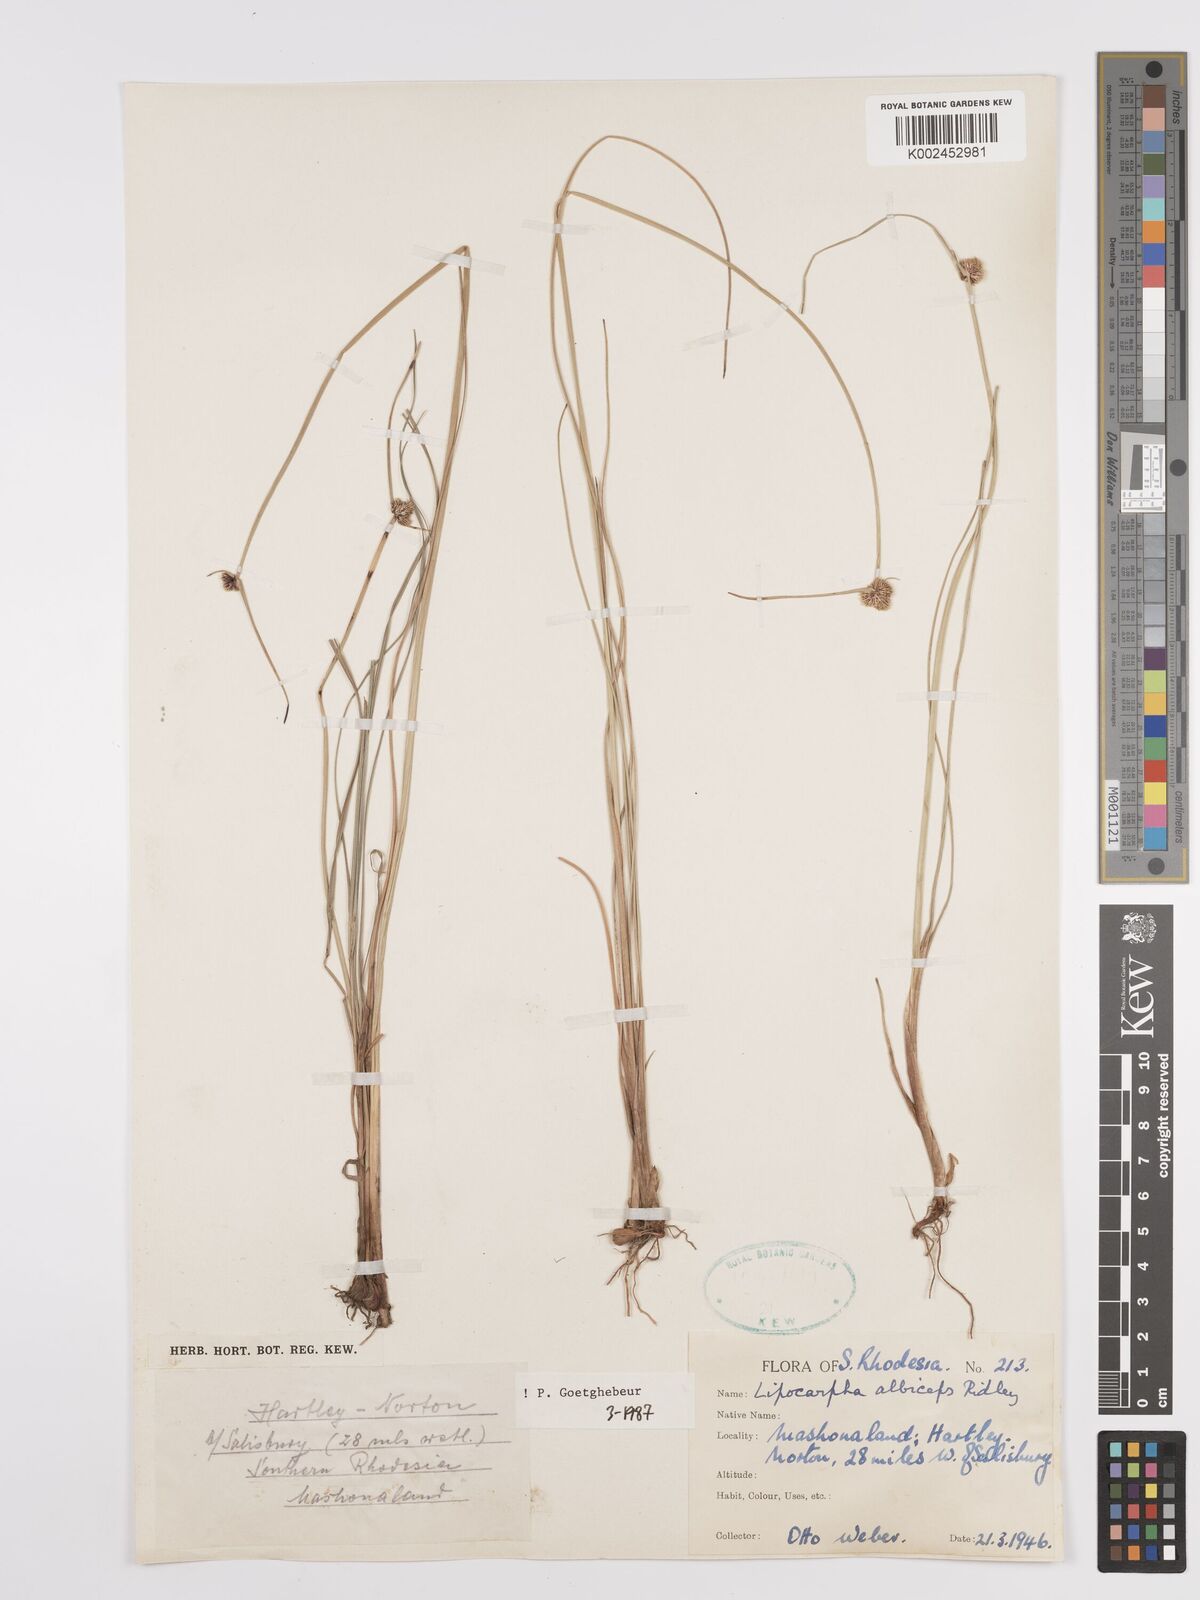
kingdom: Plantae
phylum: Tracheophyta
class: Liliopsida
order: Poales
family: Cyperaceae
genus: Cyperus
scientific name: Cyperus albiceps
